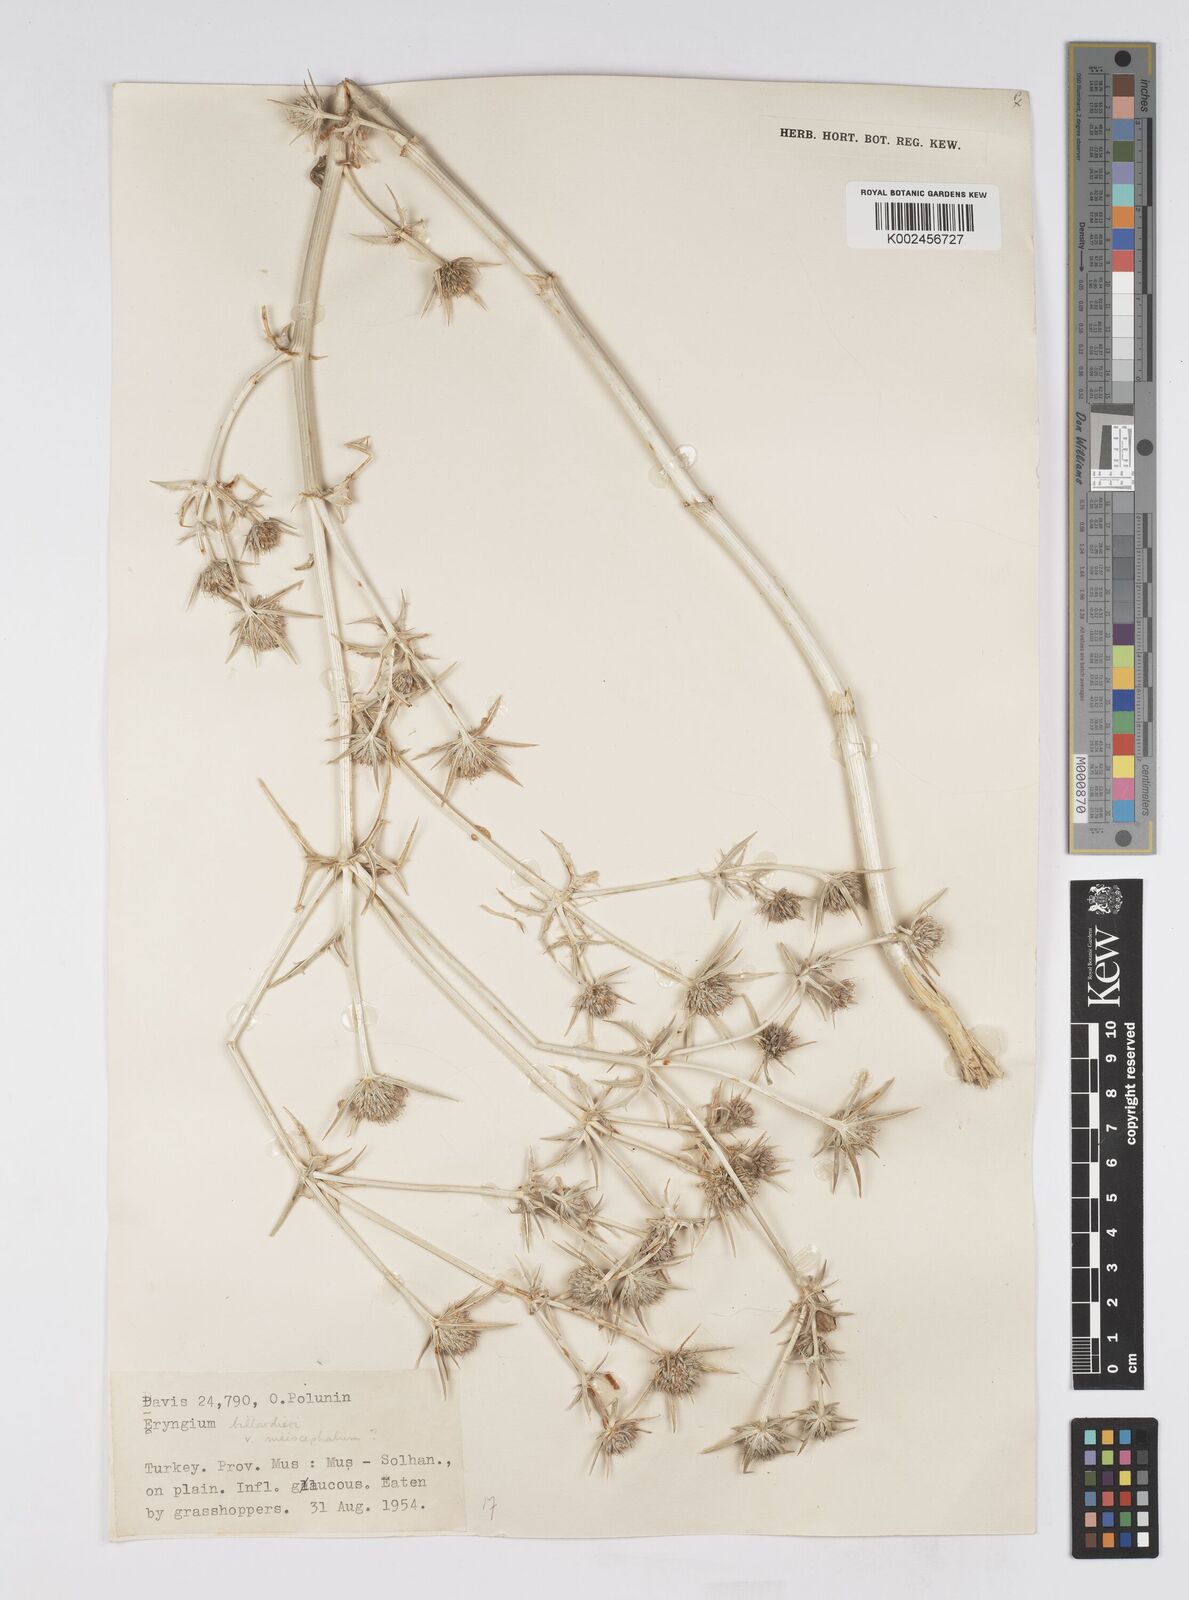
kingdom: Plantae
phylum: Tracheophyta
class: Magnoliopsida
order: Apiales
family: Apiaceae
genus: Eryngium
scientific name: Eryngium billardierei
